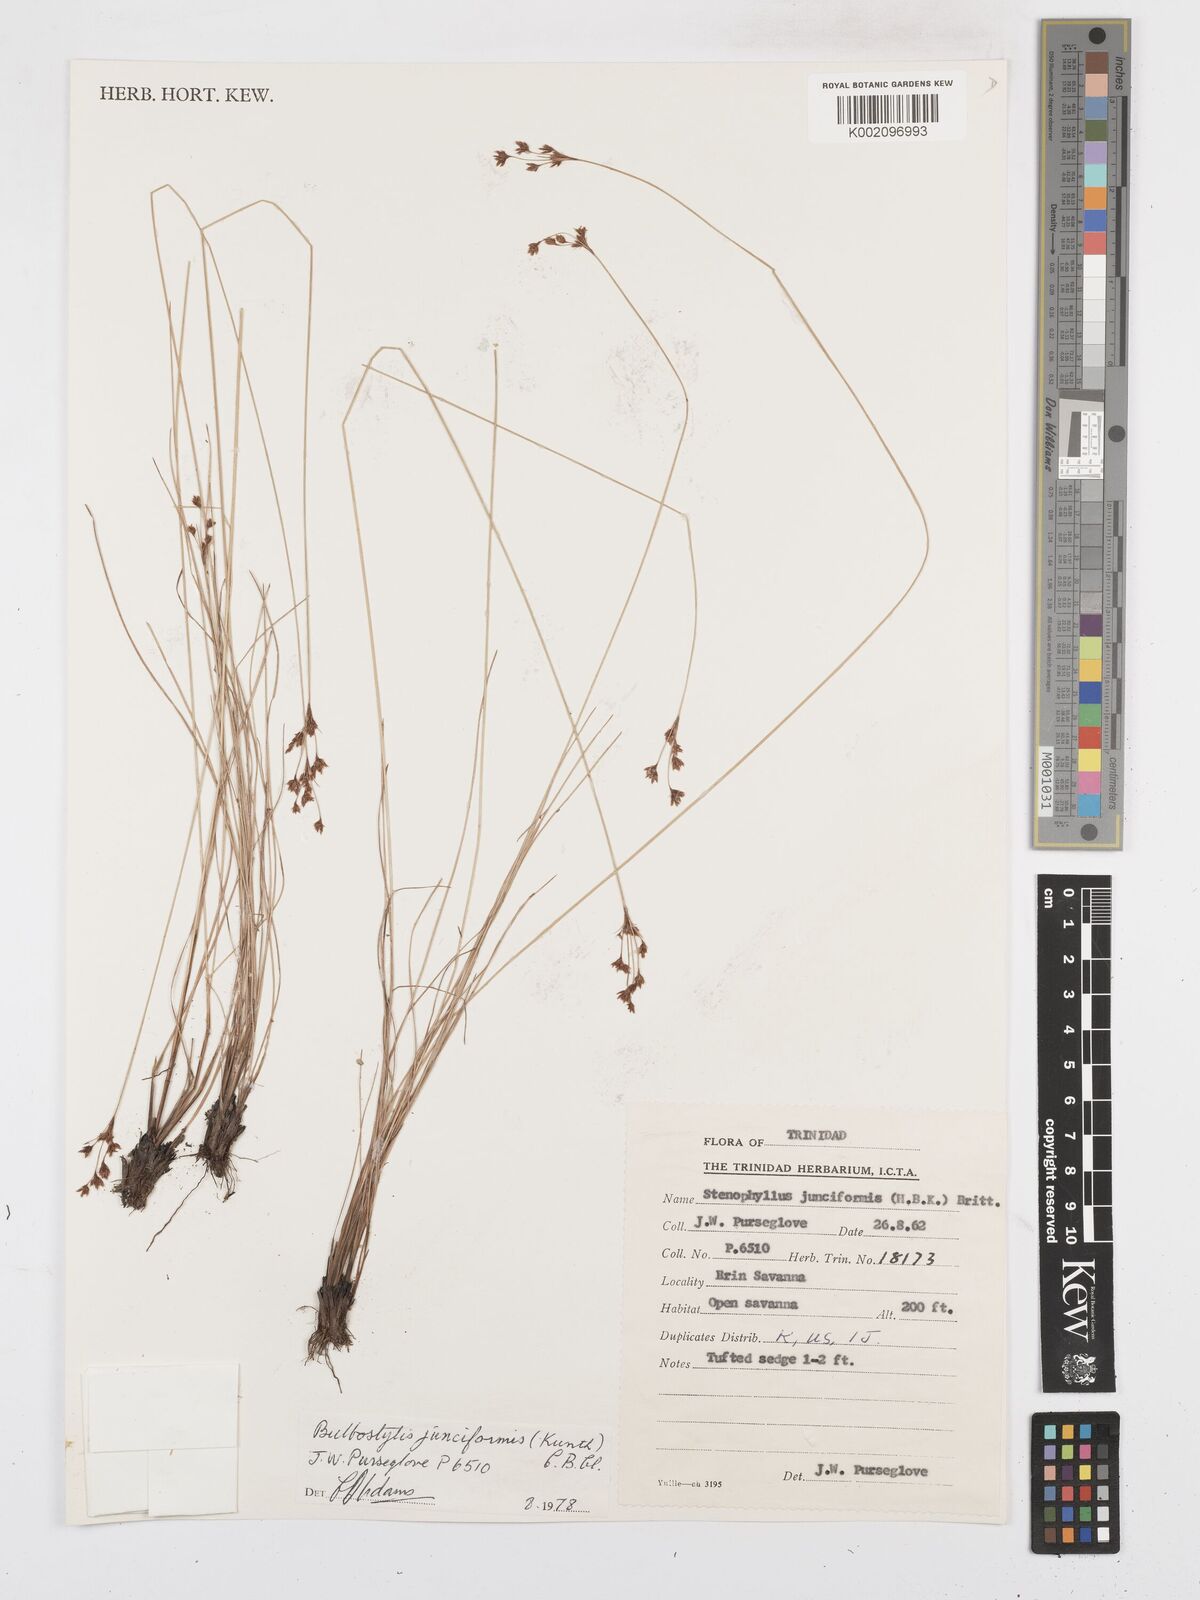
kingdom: Plantae
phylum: Tracheophyta
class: Liliopsida
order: Poales
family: Cyperaceae
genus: Bulbostylis
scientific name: Bulbostylis junciformis
